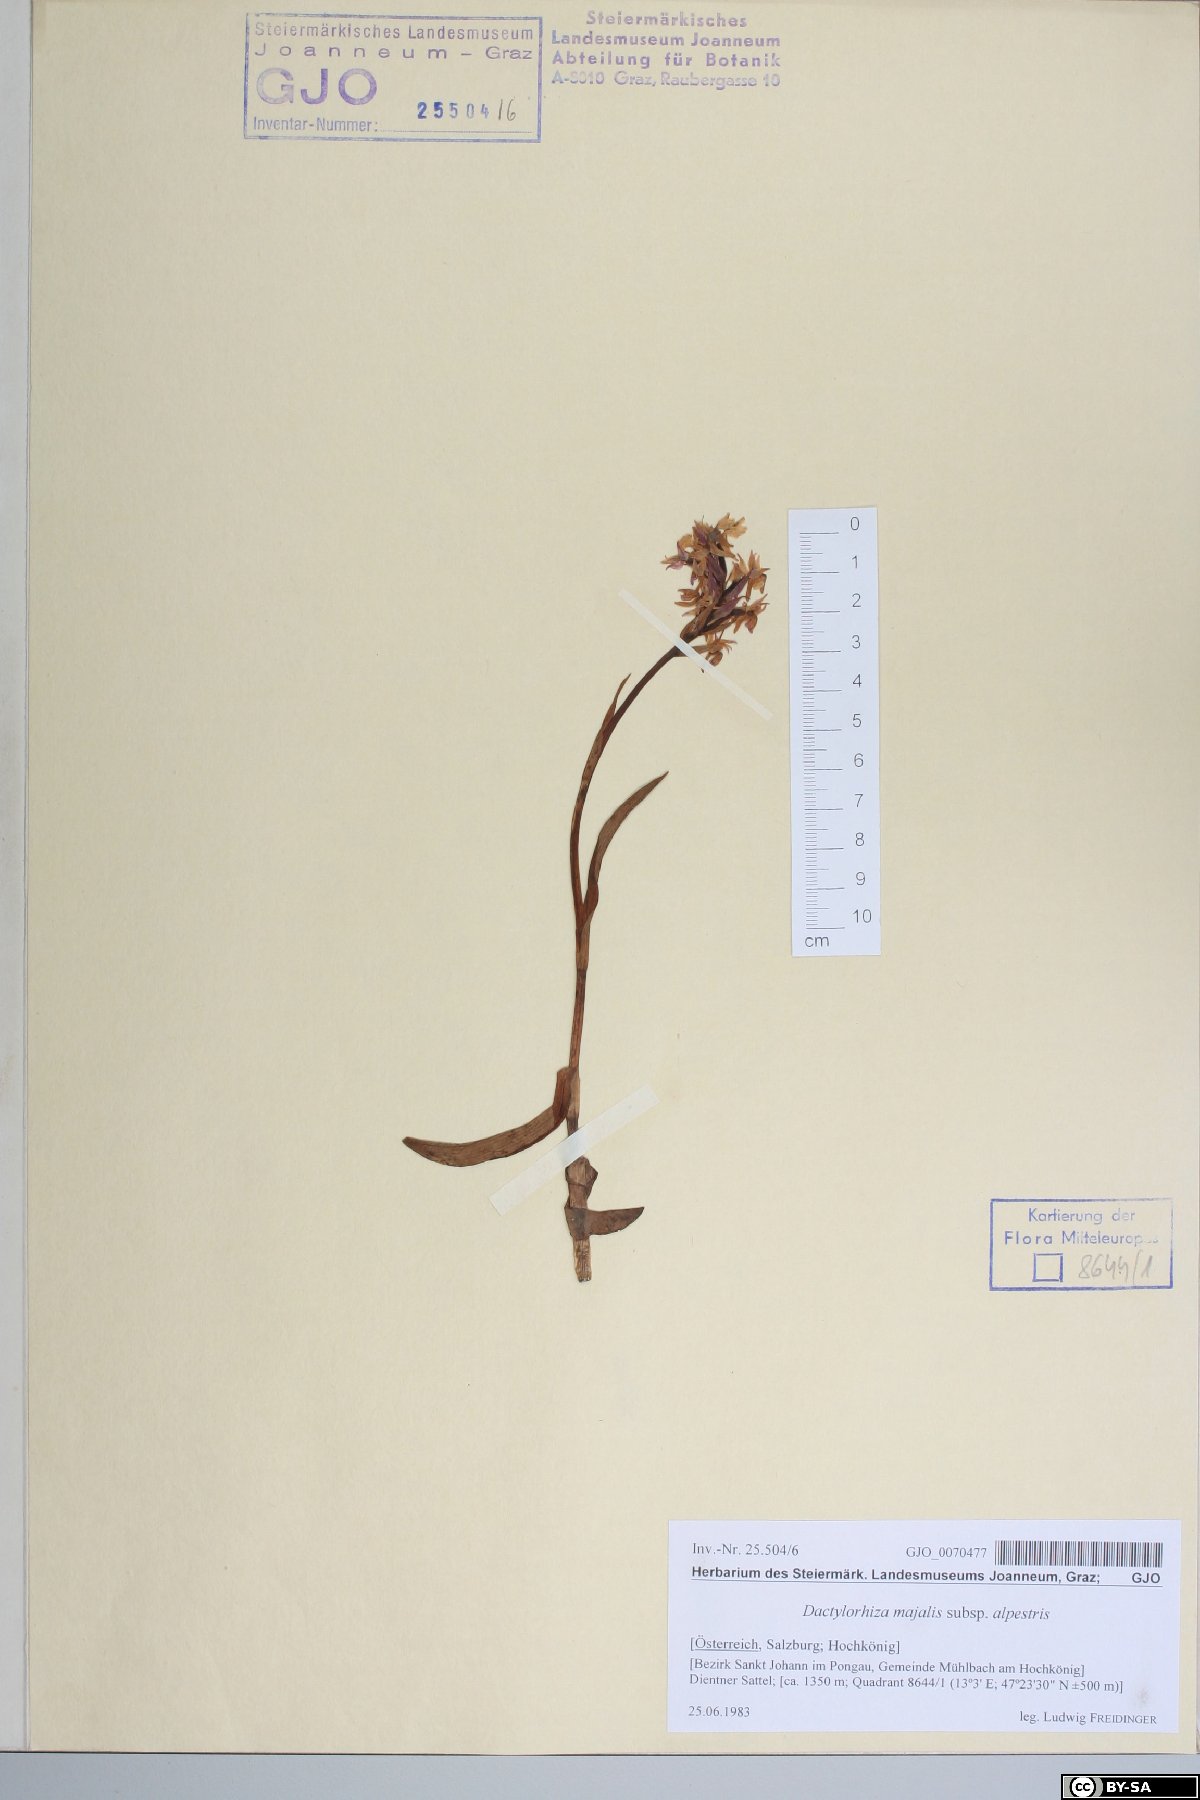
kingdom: Plantae
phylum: Tracheophyta
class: Liliopsida
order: Asparagales
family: Orchidaceae
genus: Dactylorhiza
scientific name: Dactylorhiza majalis
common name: Marsh orchid
